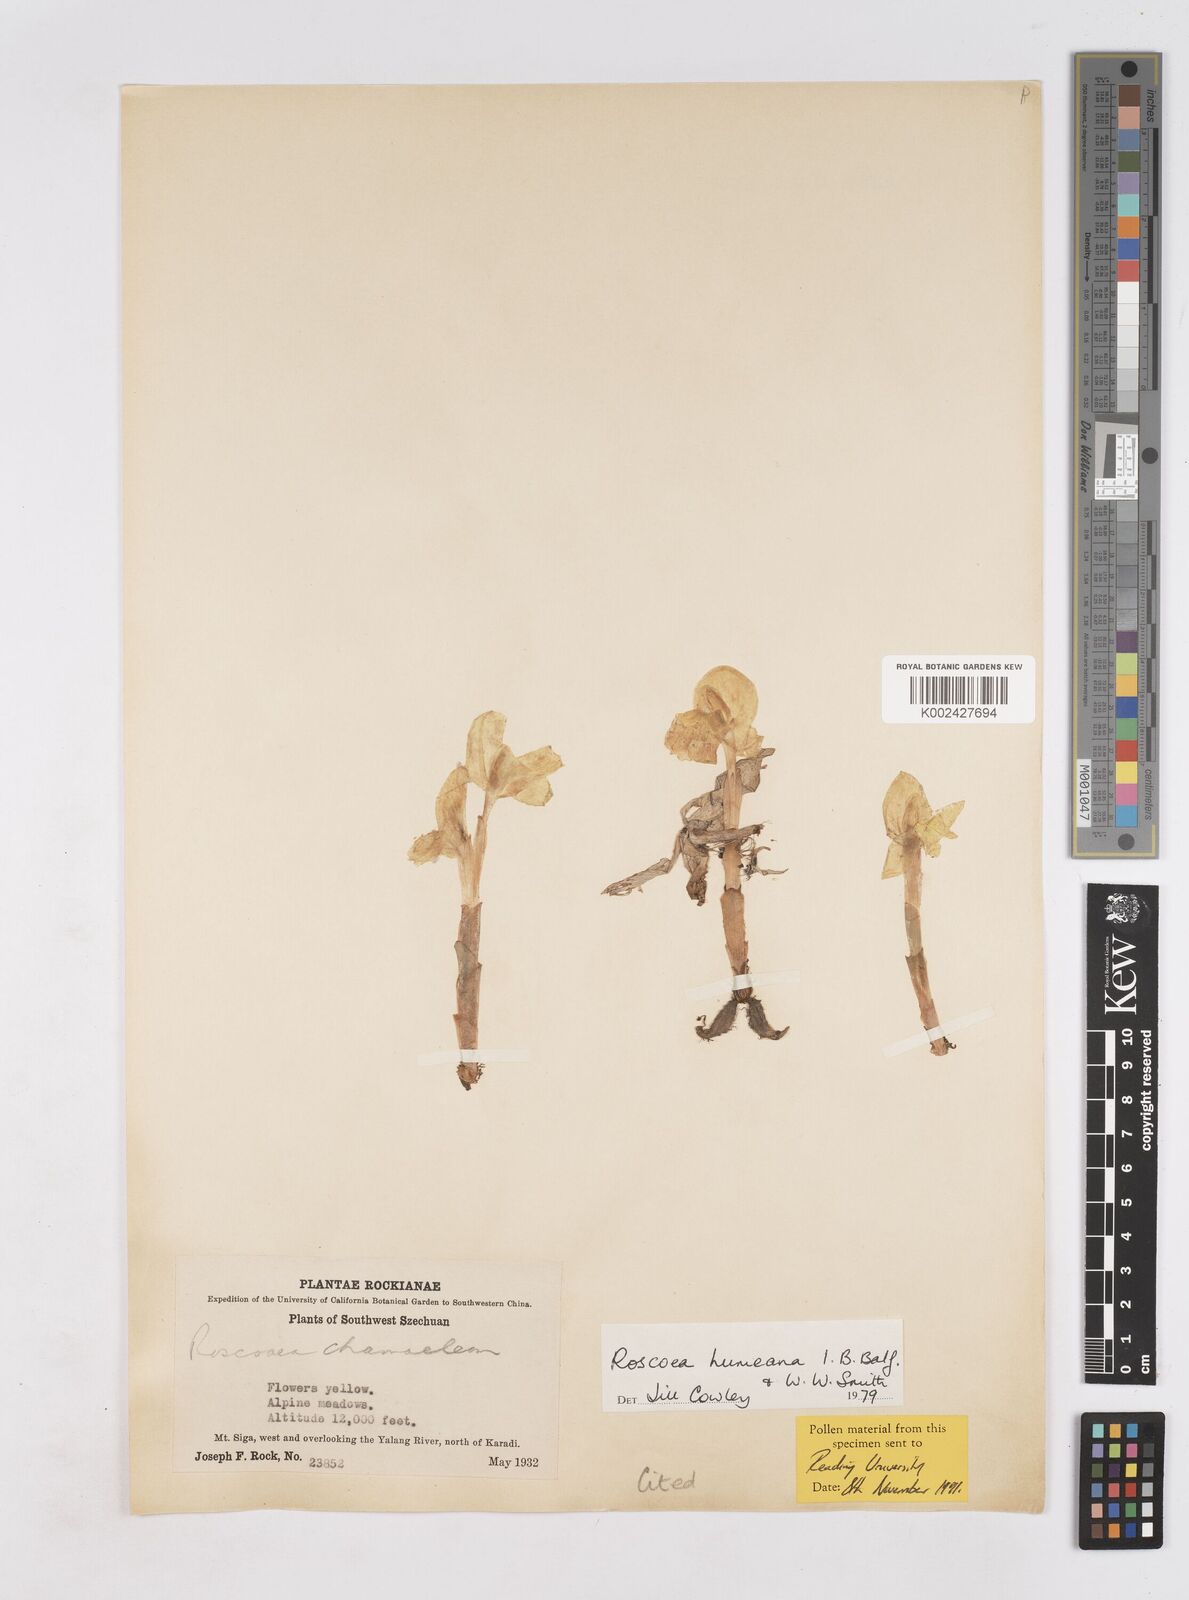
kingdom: Plantae
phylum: Tracheophyta
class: Liliopsida
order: Zingiberales
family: Zingiberaceae
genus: Roscoea
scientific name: Roscoea humeana
